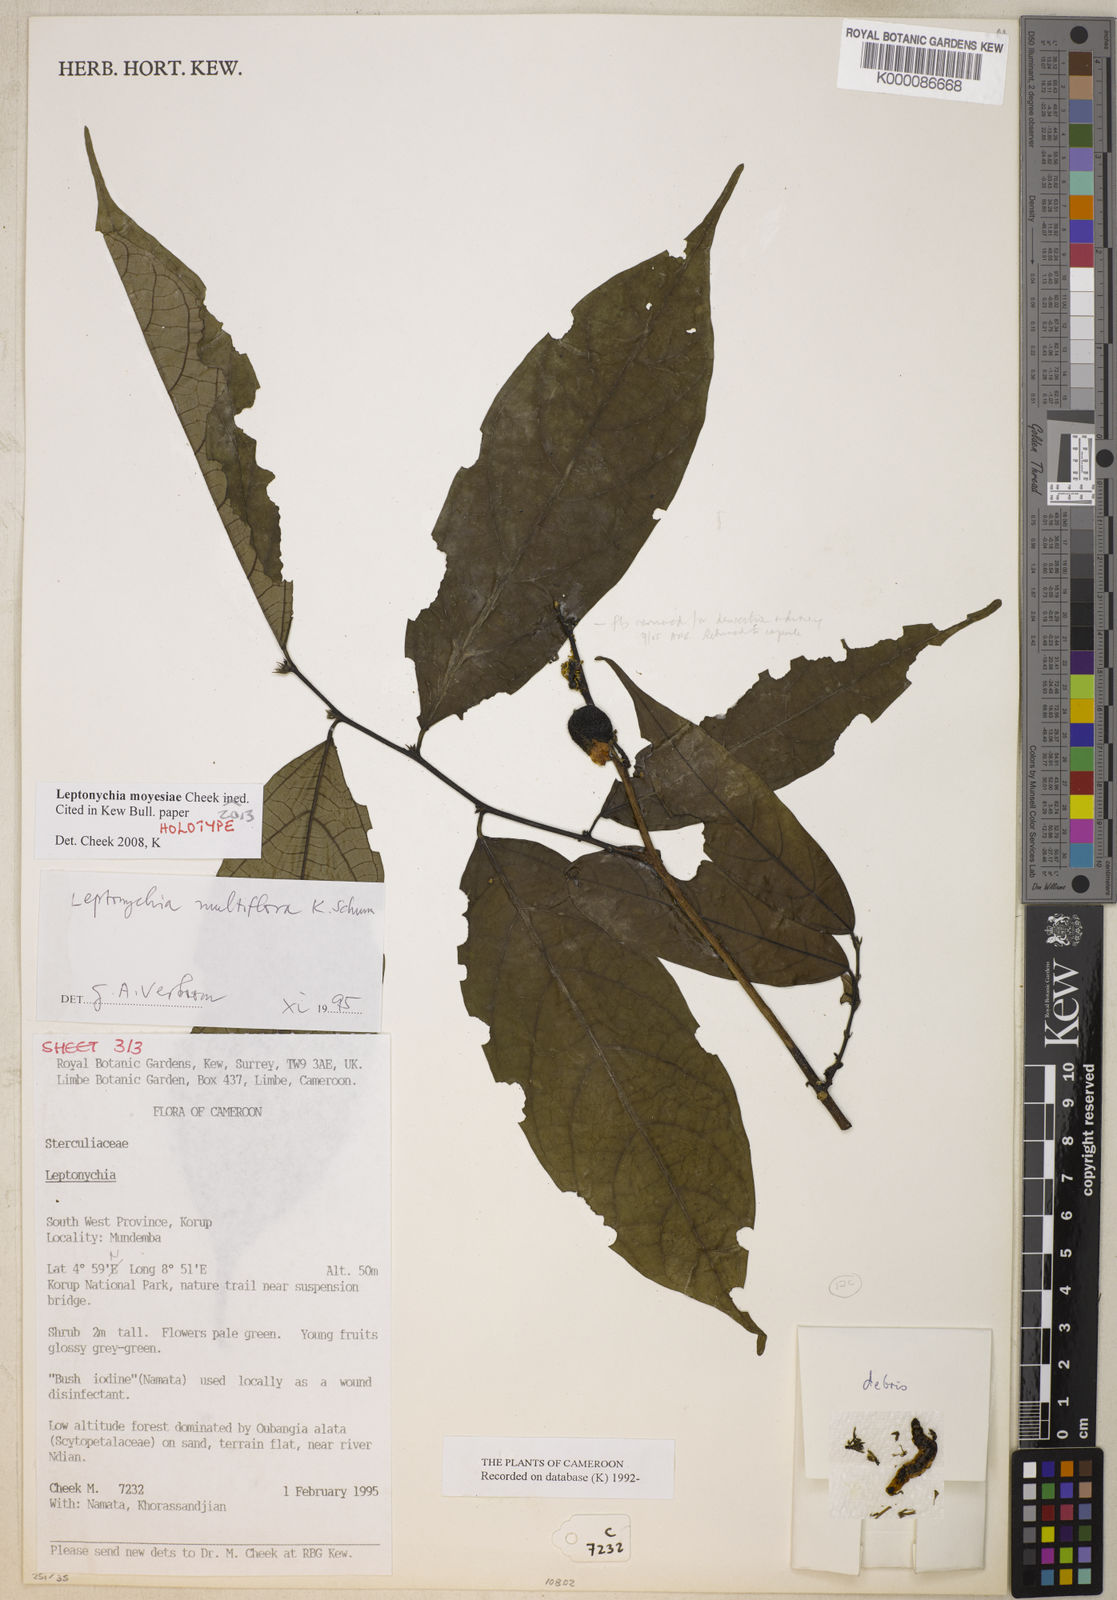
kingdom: Plantae
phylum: Tracheophyta
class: Magnoliopsida
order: Malvales
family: Malvaceae
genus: Leptonychia
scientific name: Leptonychia moyesiae
